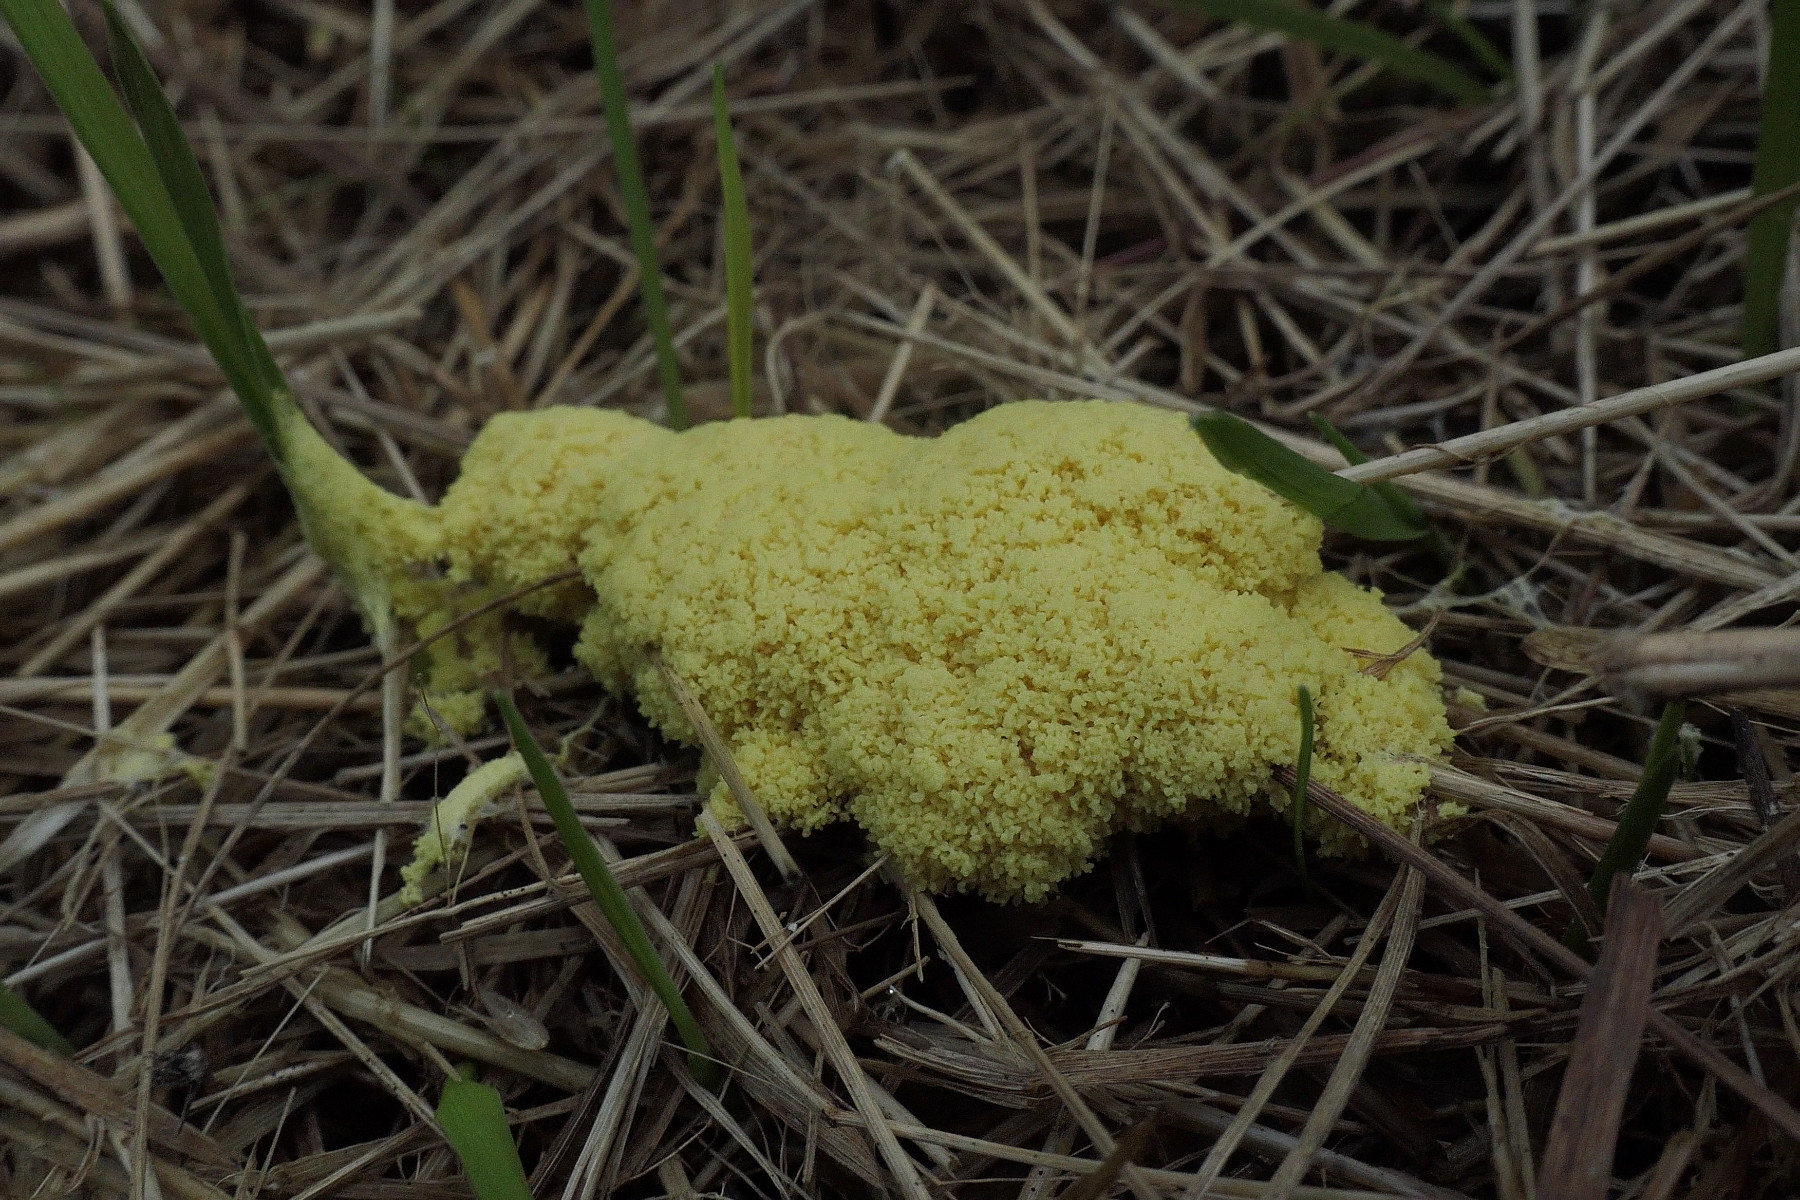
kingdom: Protozoa
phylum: Mycetozoa
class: Myxomycetes
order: Physarales
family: Physaraceae
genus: Fuligo
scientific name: Fuligo septica
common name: gul troldsmør
